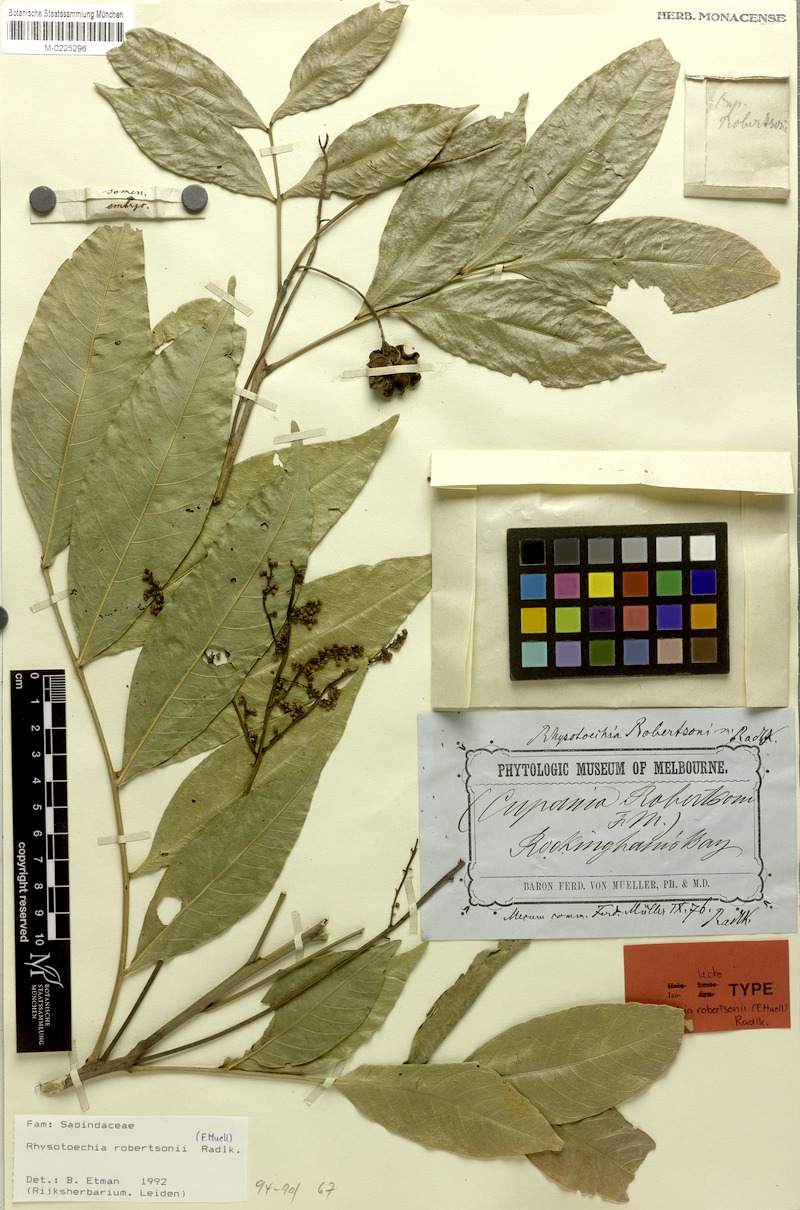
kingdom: Plantae
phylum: Tracheophyta
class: Magnoliopsida
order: Sapindales
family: Sapindaceae
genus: Rhysotoechia
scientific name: Rhysotoechia robertsonii
